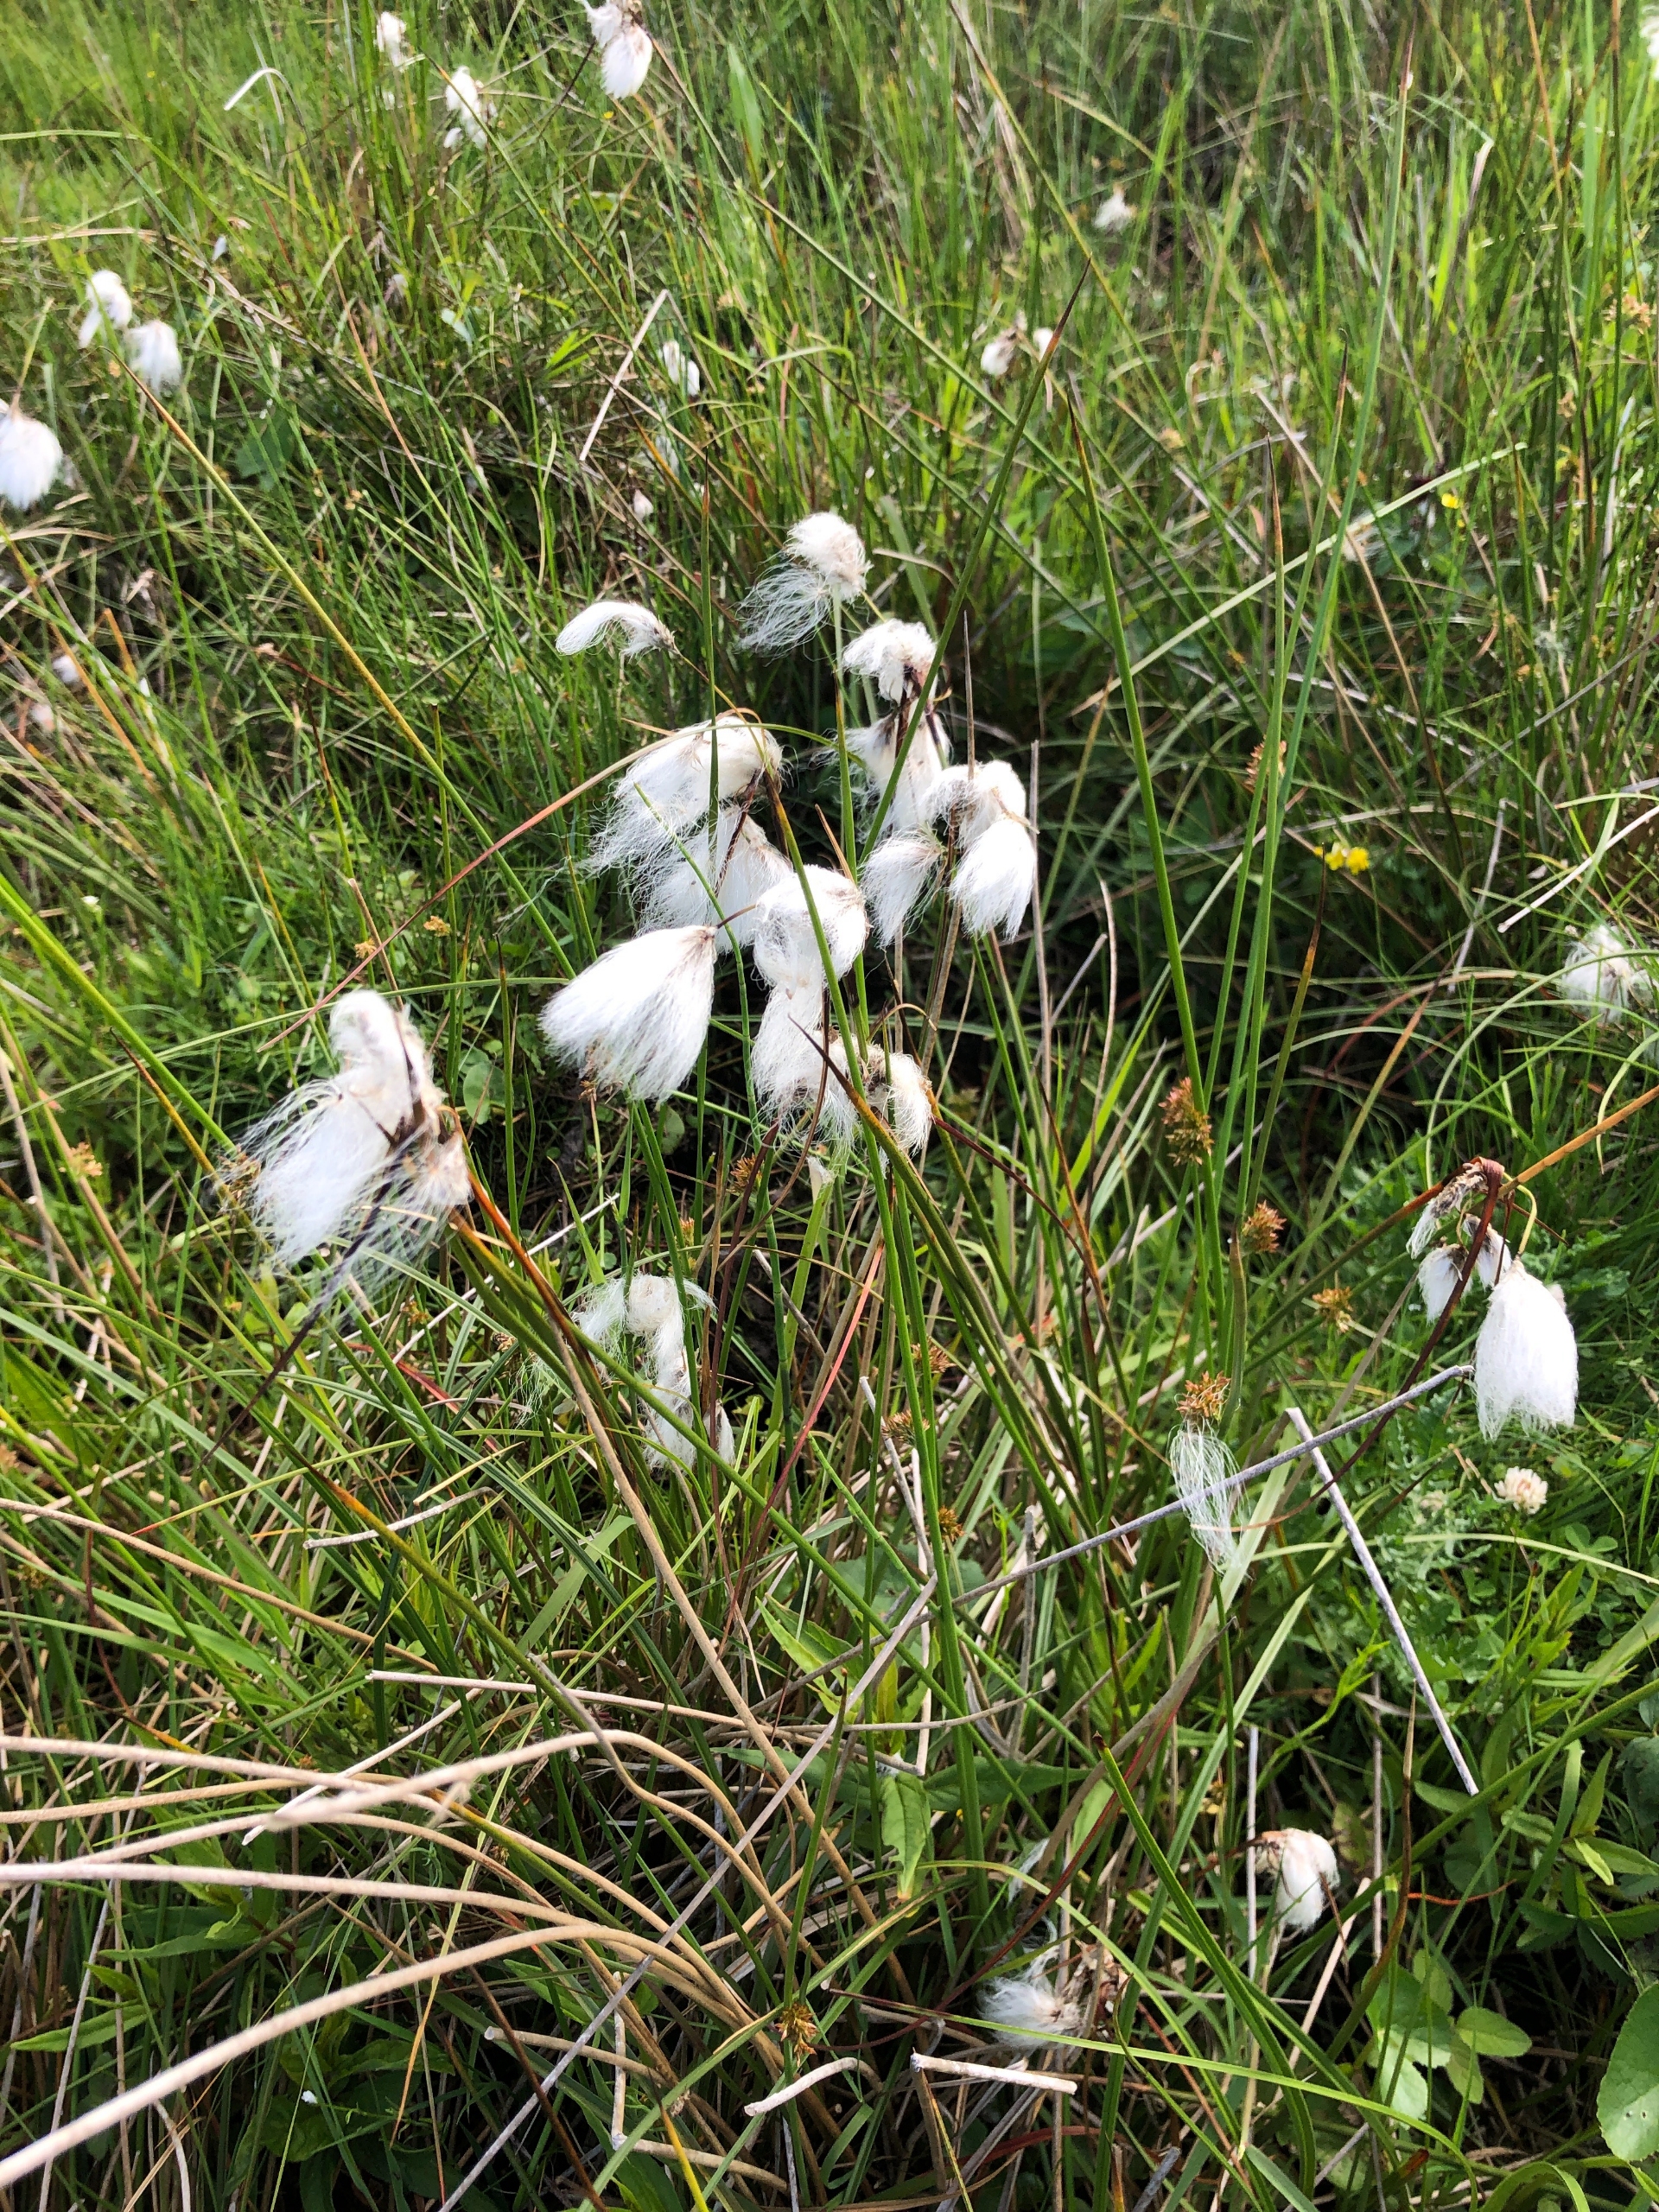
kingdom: Plantae
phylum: Tracheophyta
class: Liliopsida
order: Poales
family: Cyperaceae
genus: Eriophorum
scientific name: Eriophorum angustifolium
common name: Smalbladet kæruld
